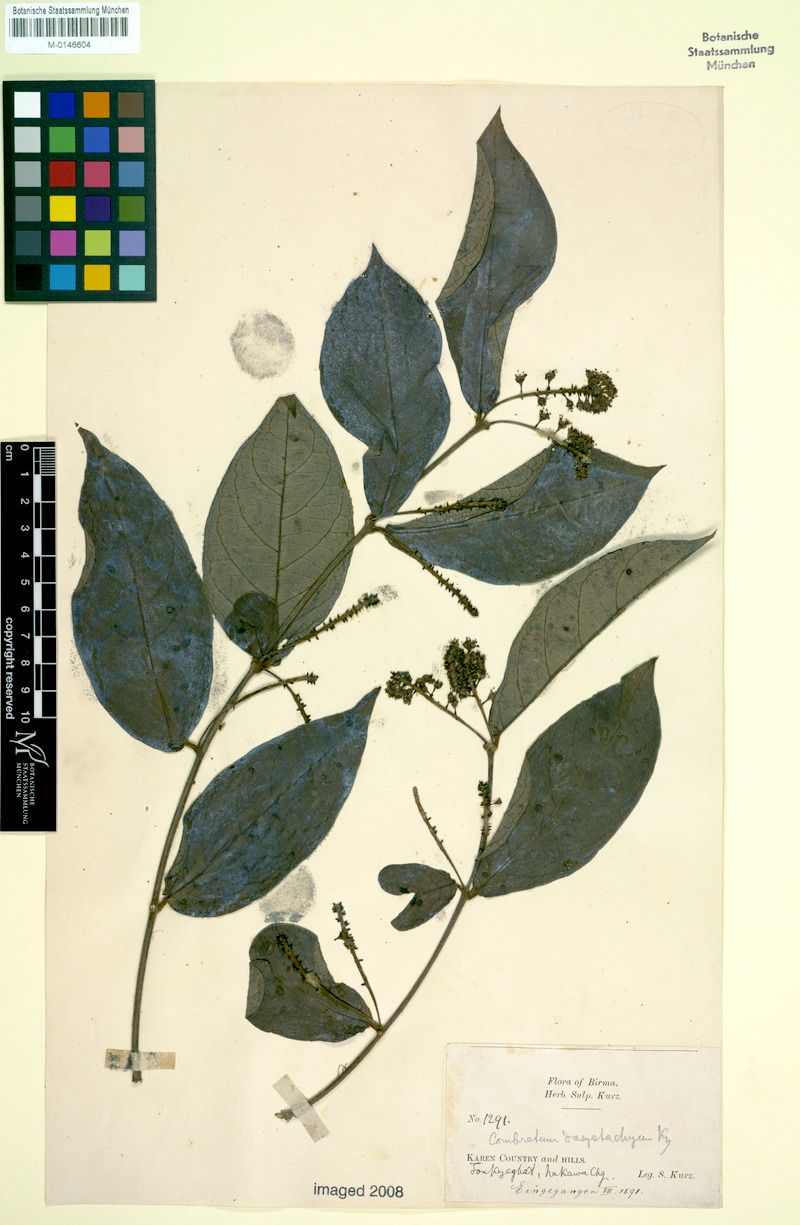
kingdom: Plantae
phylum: Tracheophyta
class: Magnoliopsida
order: Myrtales
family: Combretaceae
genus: Combretum
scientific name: Combretum griffithii
